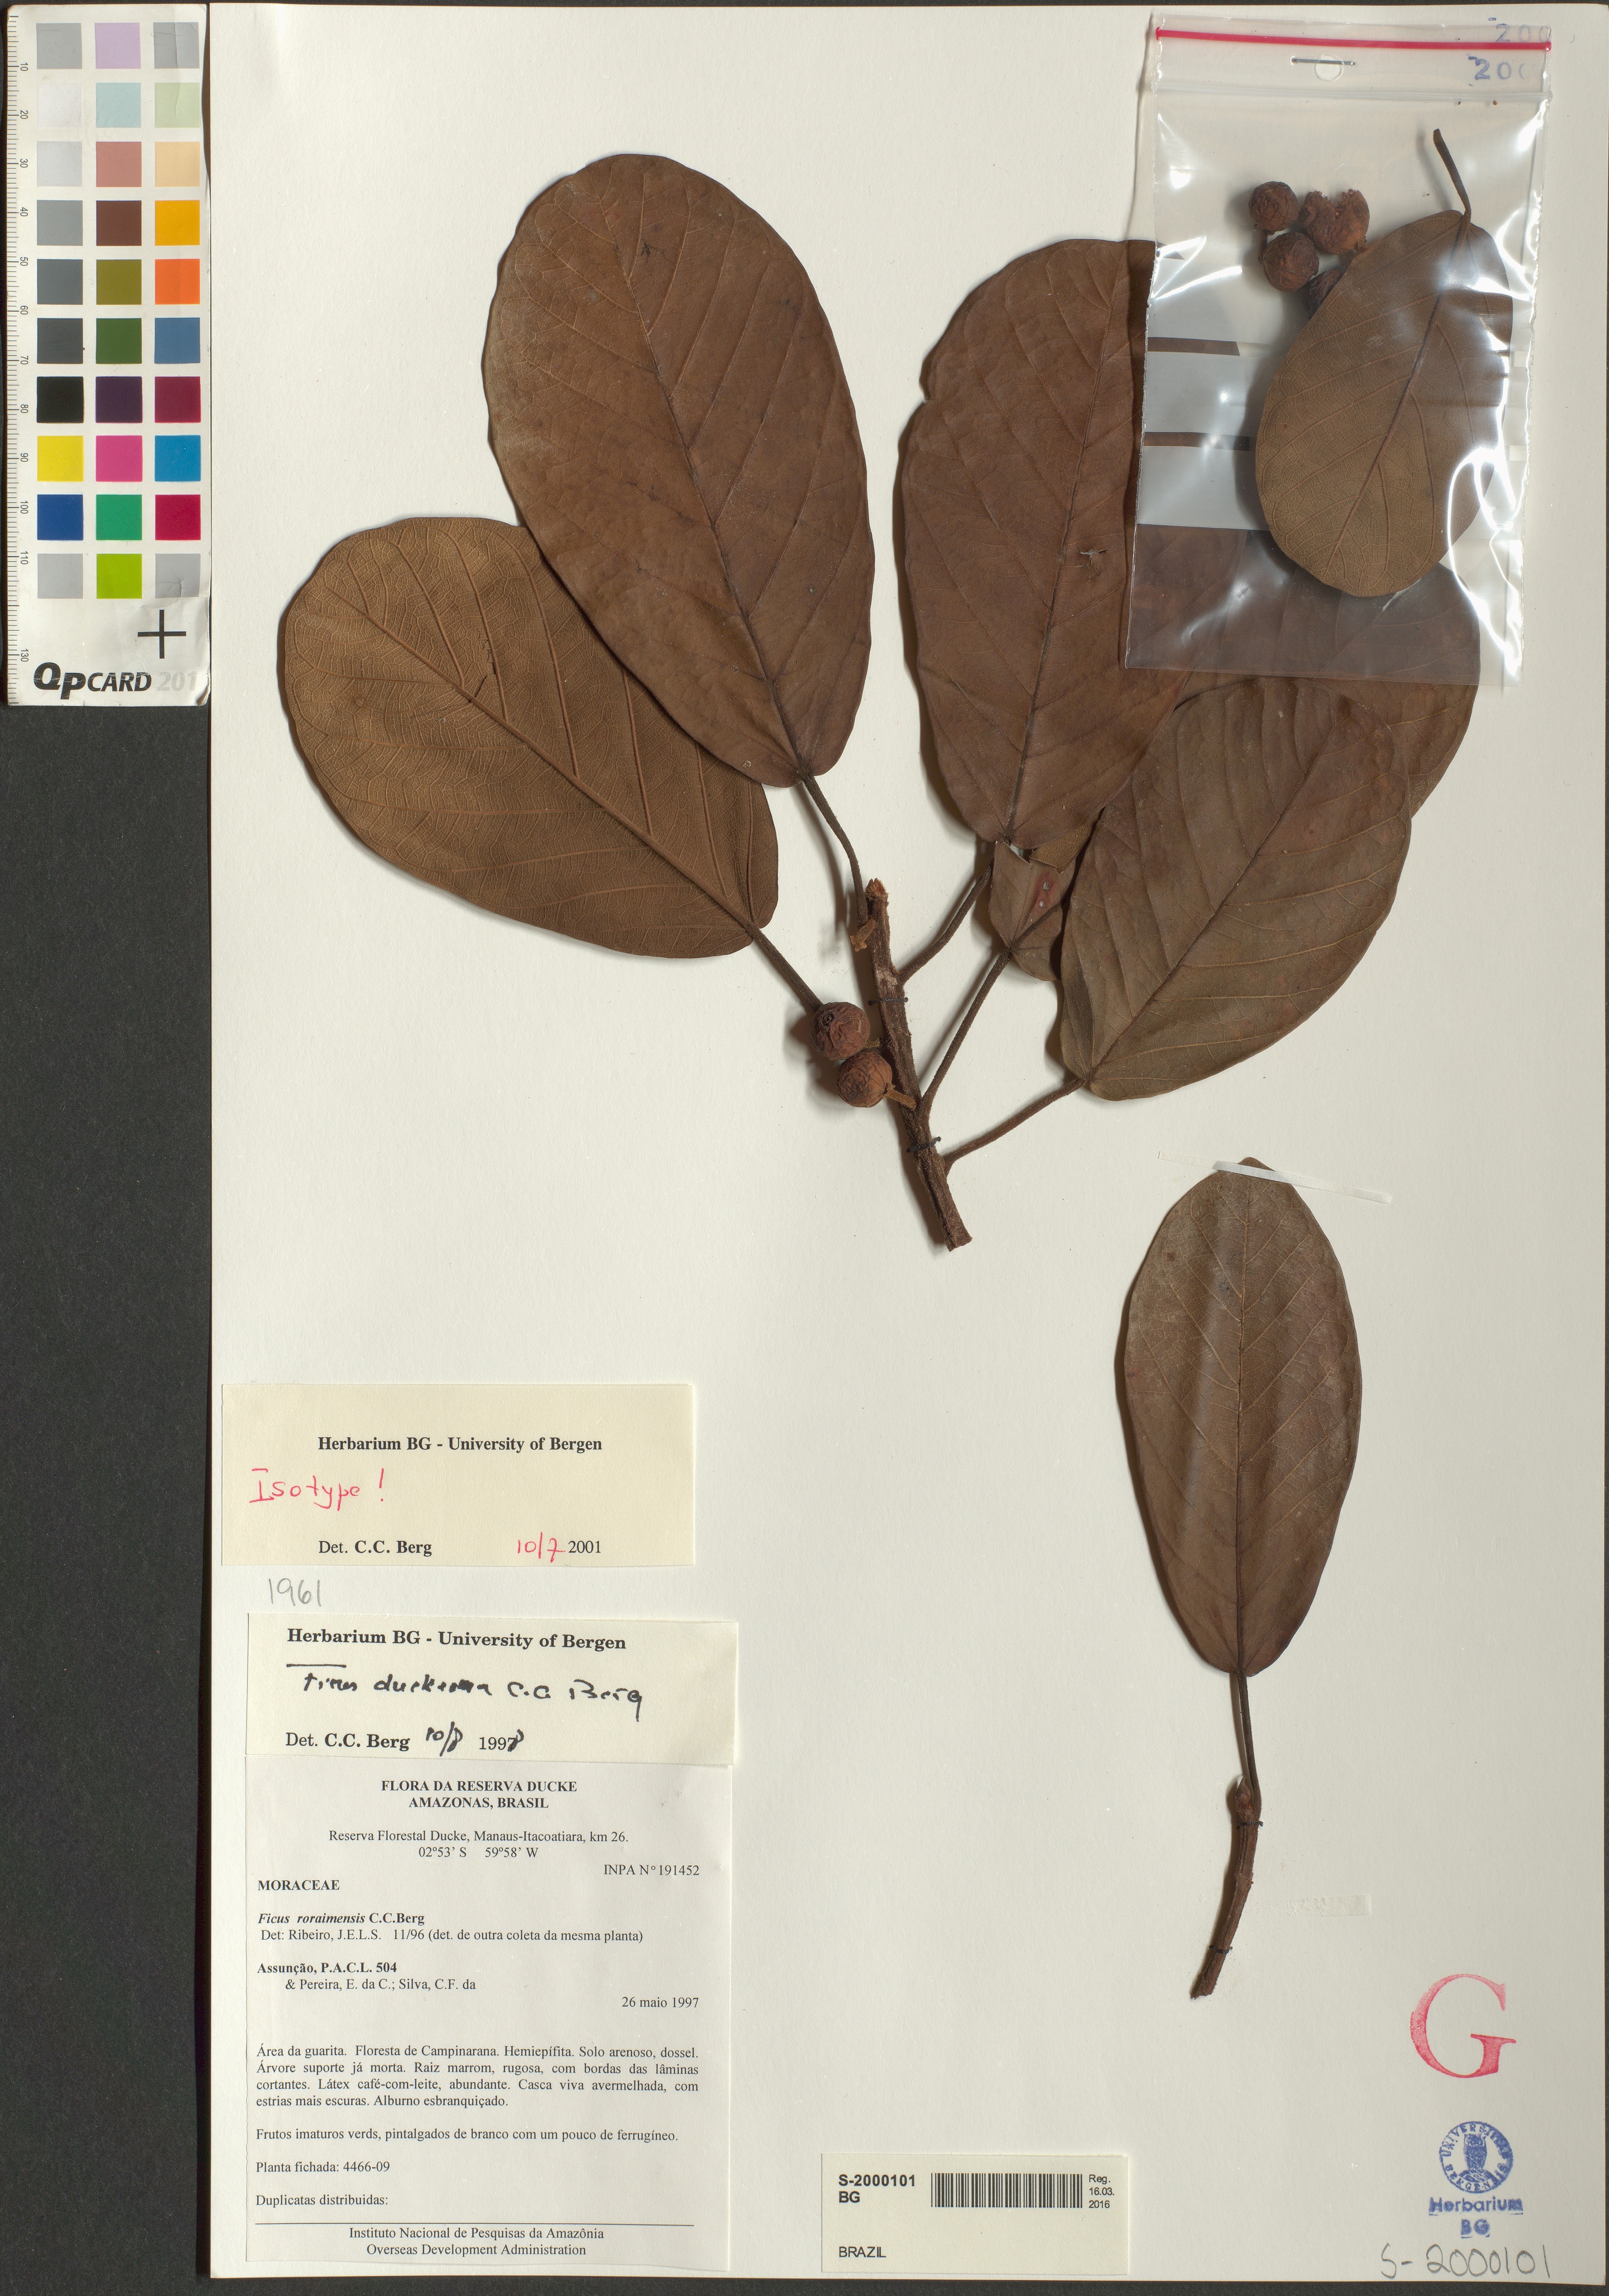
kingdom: Plantae
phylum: Tracheophyta
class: Magnoliopsida
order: Rosales
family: Moraceae
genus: Ficus
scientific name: Ficus duckeana
